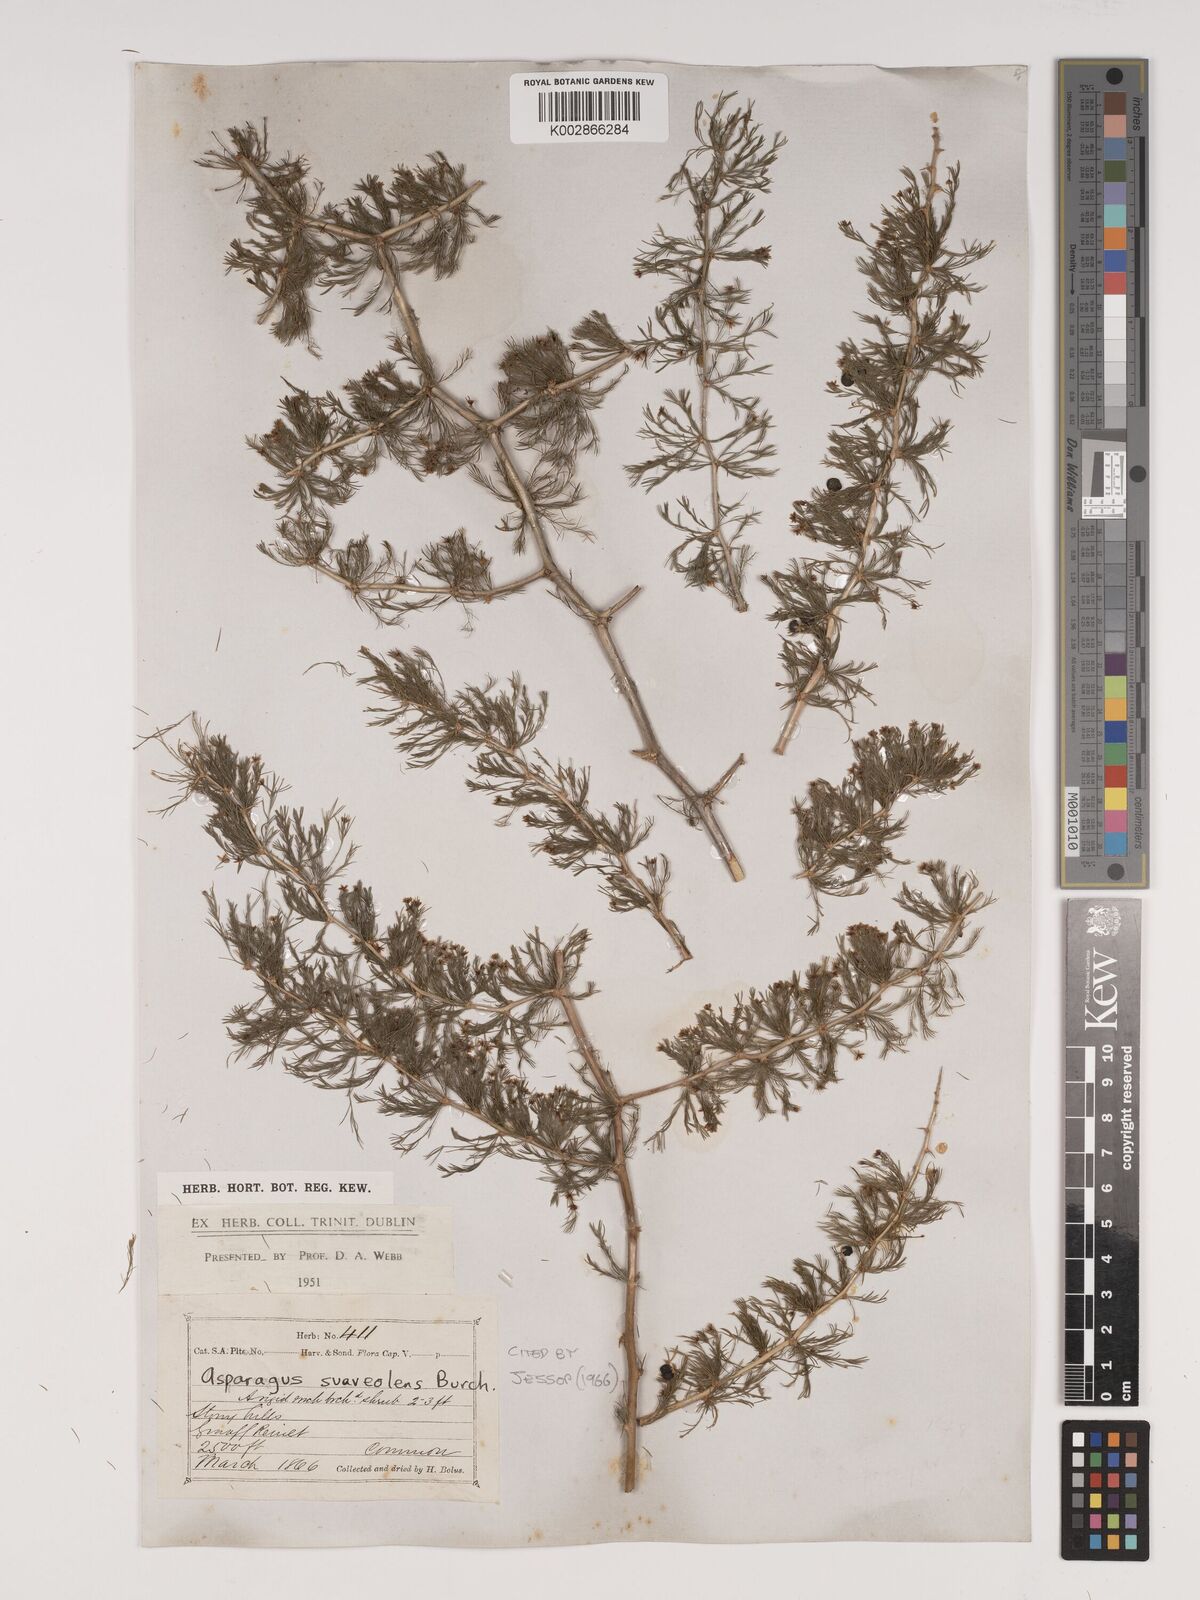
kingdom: Plantae
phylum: Tracheophyta
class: Liliopsida
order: Asparagales
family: Asparagaceae
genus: Asparagus
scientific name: Asparagus suaveolens
